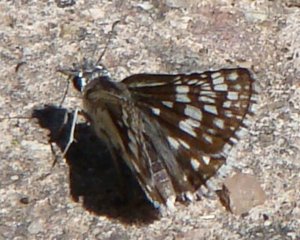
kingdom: Animalia
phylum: Arthropoda
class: Insecta
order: Lepidoptera
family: Hesperiidae
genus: Pyrgus
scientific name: Pyrgus communis
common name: Common Checkered-Skipper
